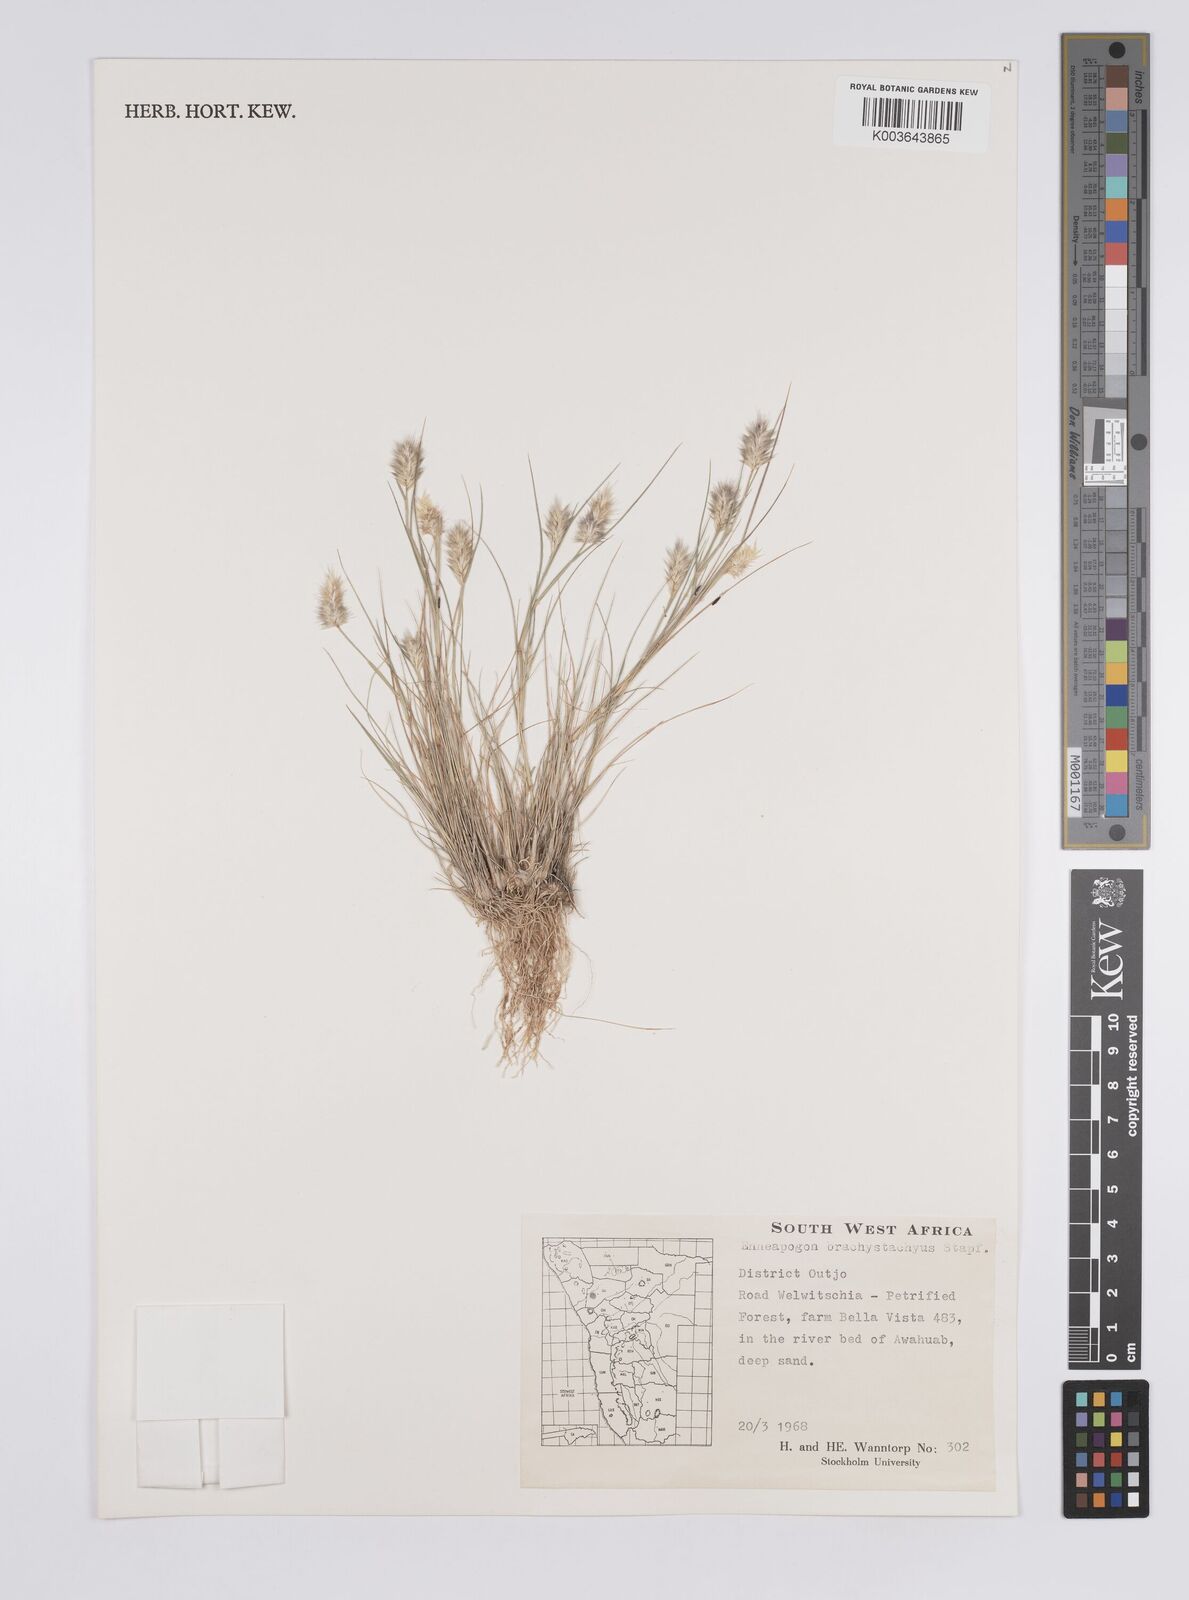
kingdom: Plantae
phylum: Tracheophyta
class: Liliopsida
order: Poales
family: Poaceae
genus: Enneapogon
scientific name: Enneapogon desvauxii
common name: Feather pappus grass
